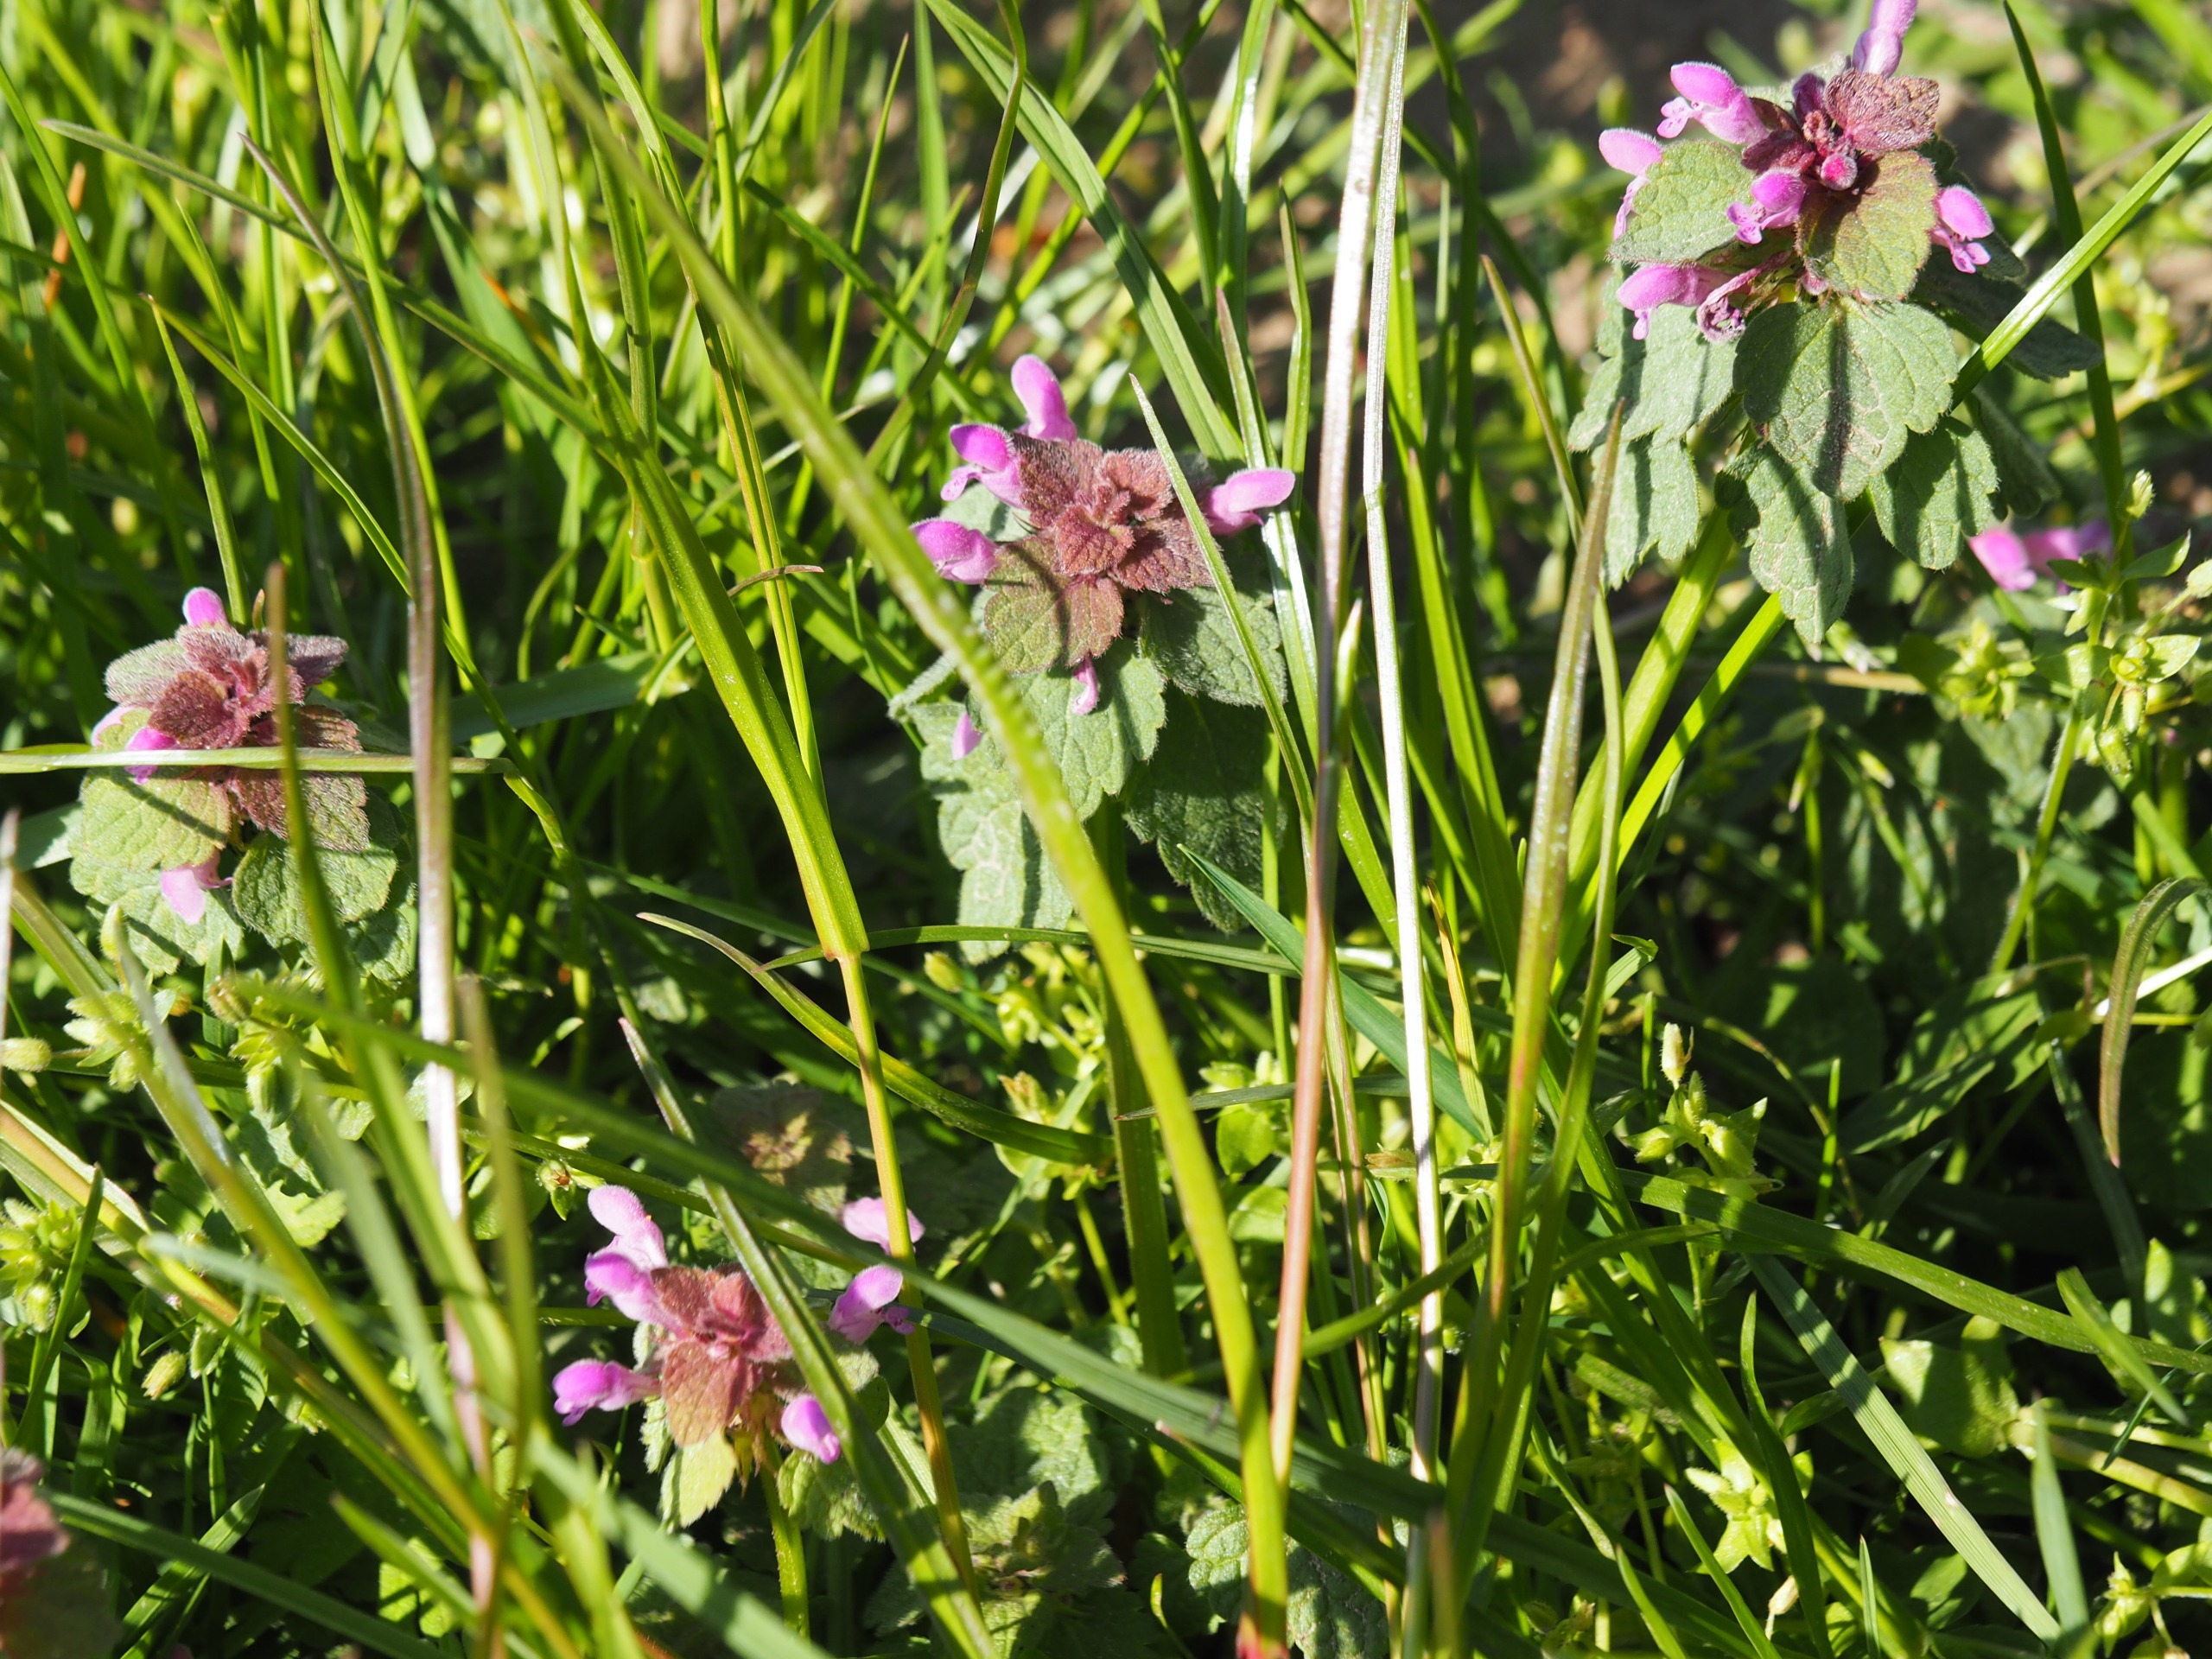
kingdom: Plantae
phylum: Tracheophyta
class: Magnoliopsida
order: Lamiales
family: Lamiaceae
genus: Lamium
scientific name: Lamium purpureum
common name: Rød tvetand
